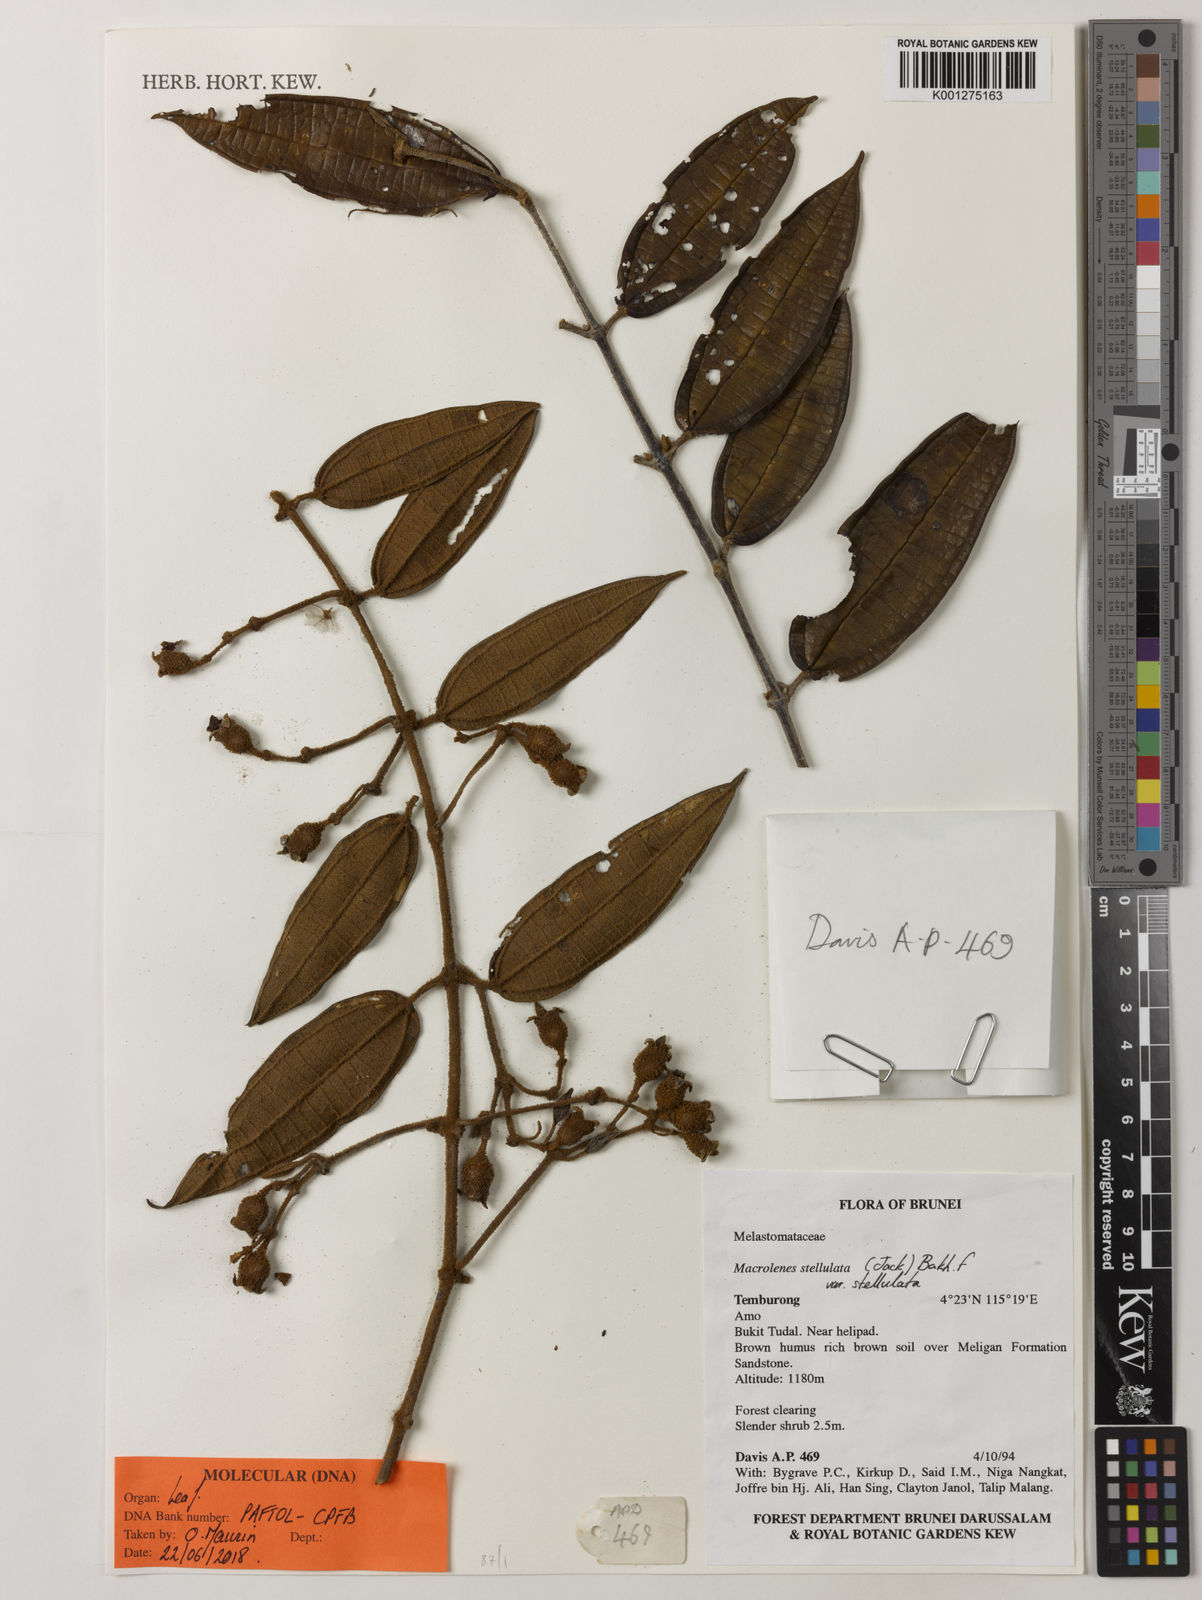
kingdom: Plantae
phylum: Tracheophyta
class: Magnoliopsida
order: Myrtales
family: Melastomataceae
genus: Macrolenes
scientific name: Macrolenes stellulata
